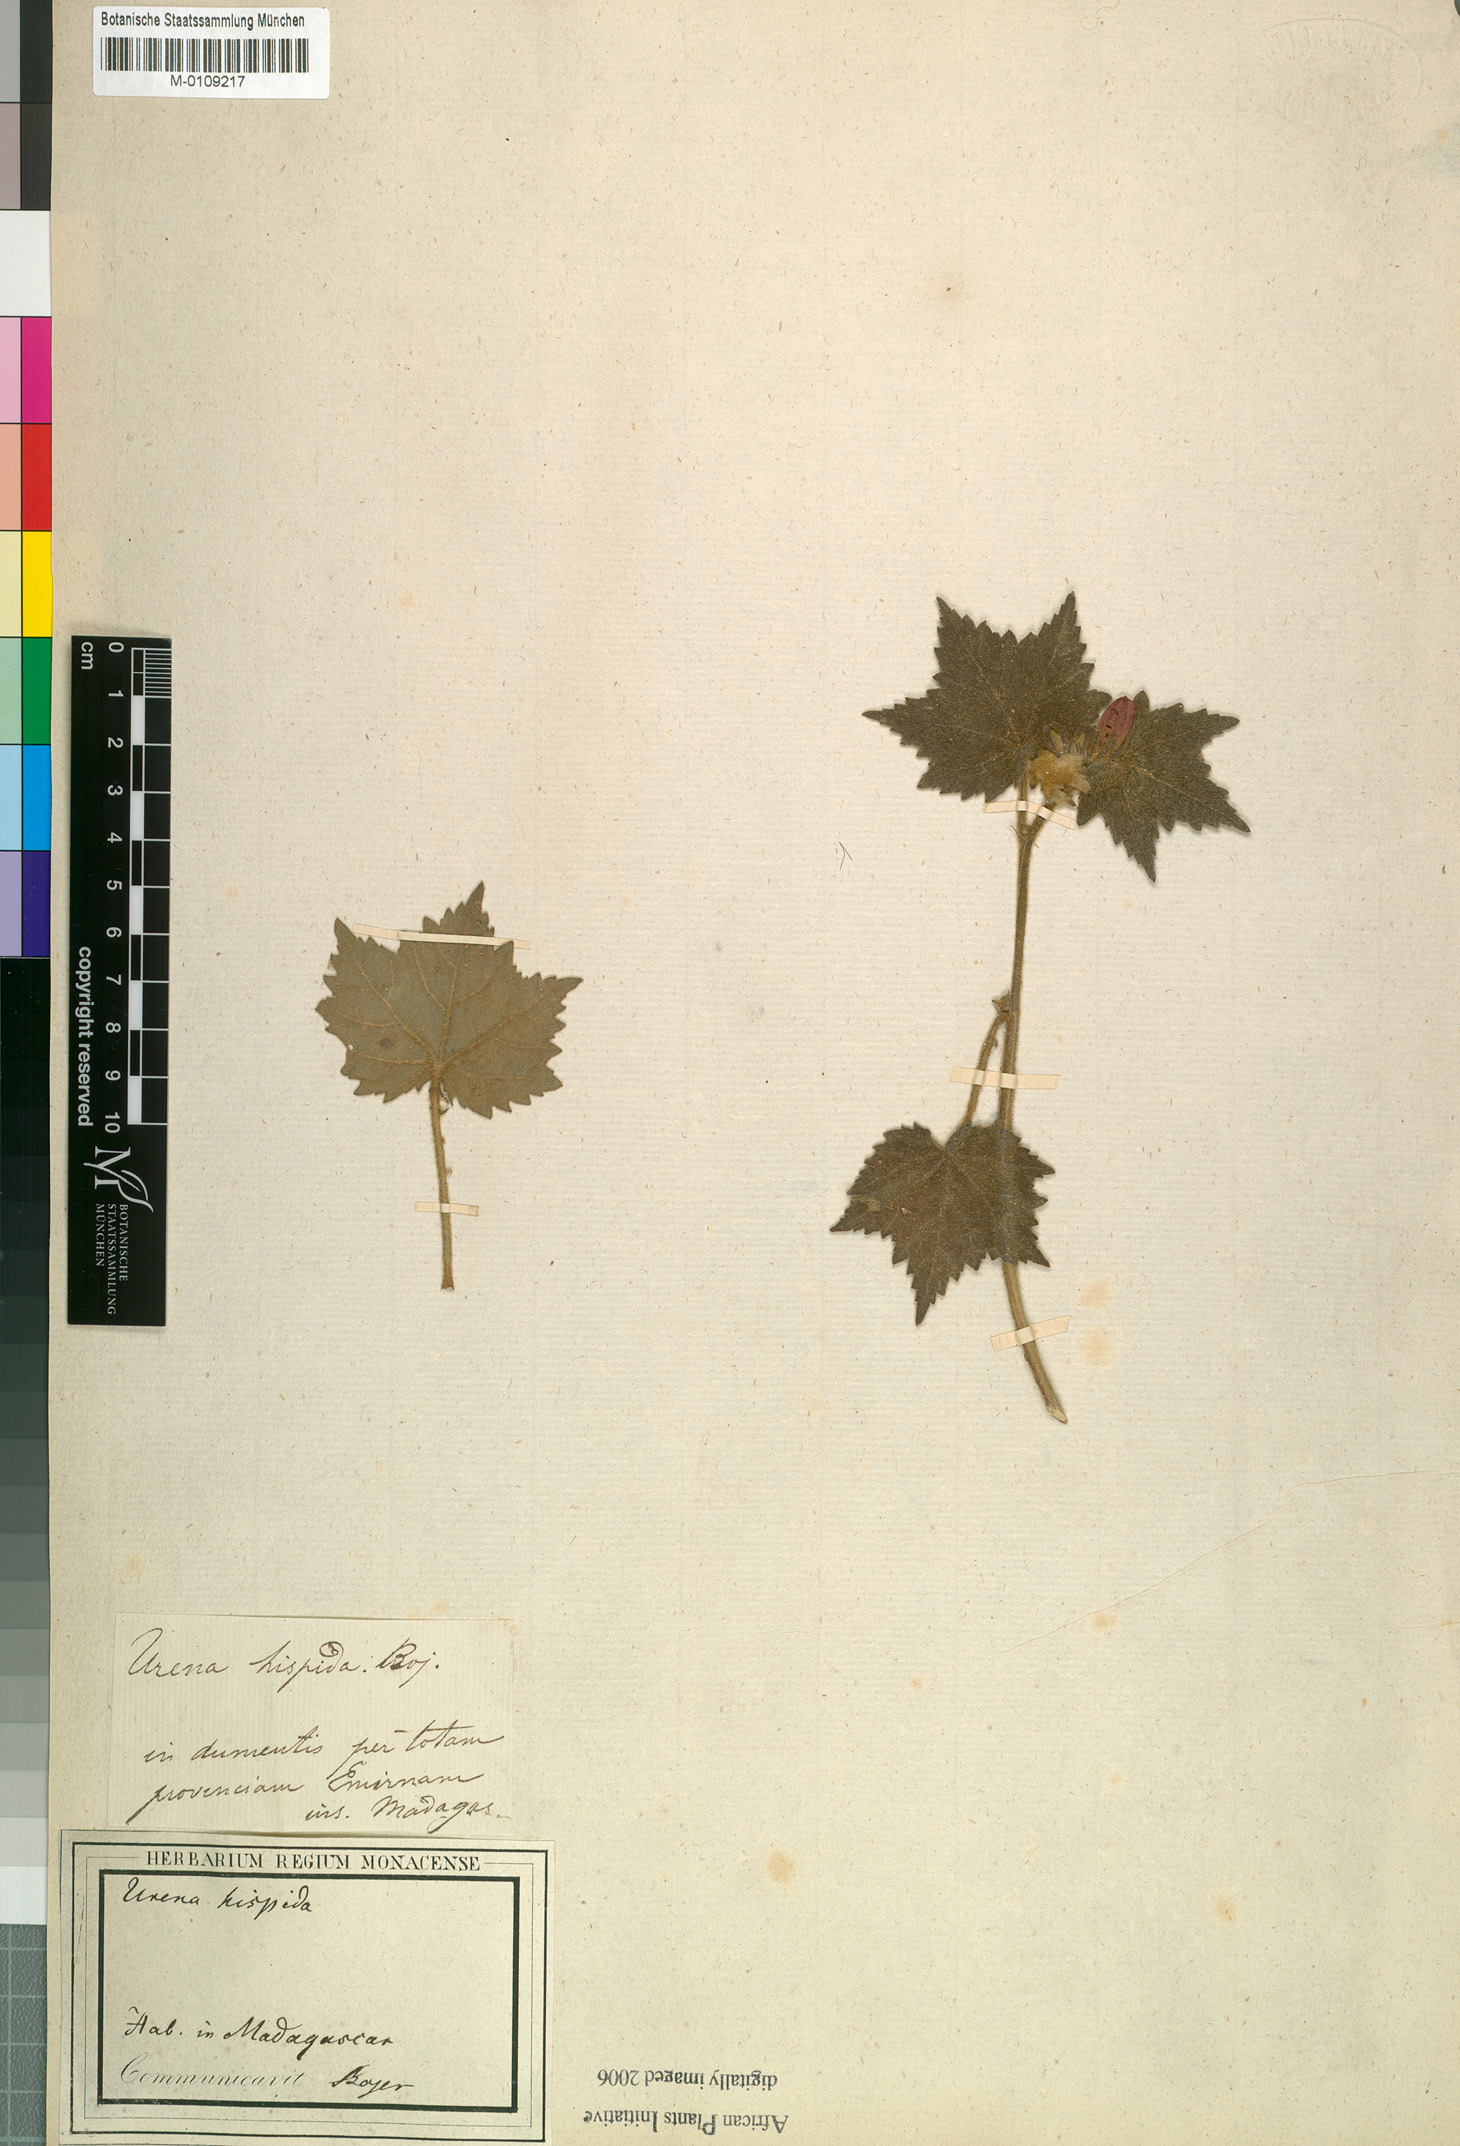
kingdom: Plantae
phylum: Tracheophyta
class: Magnoliopsida
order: Malvales
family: Malvaceae
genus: Pavonia
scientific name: Pavonia urens
